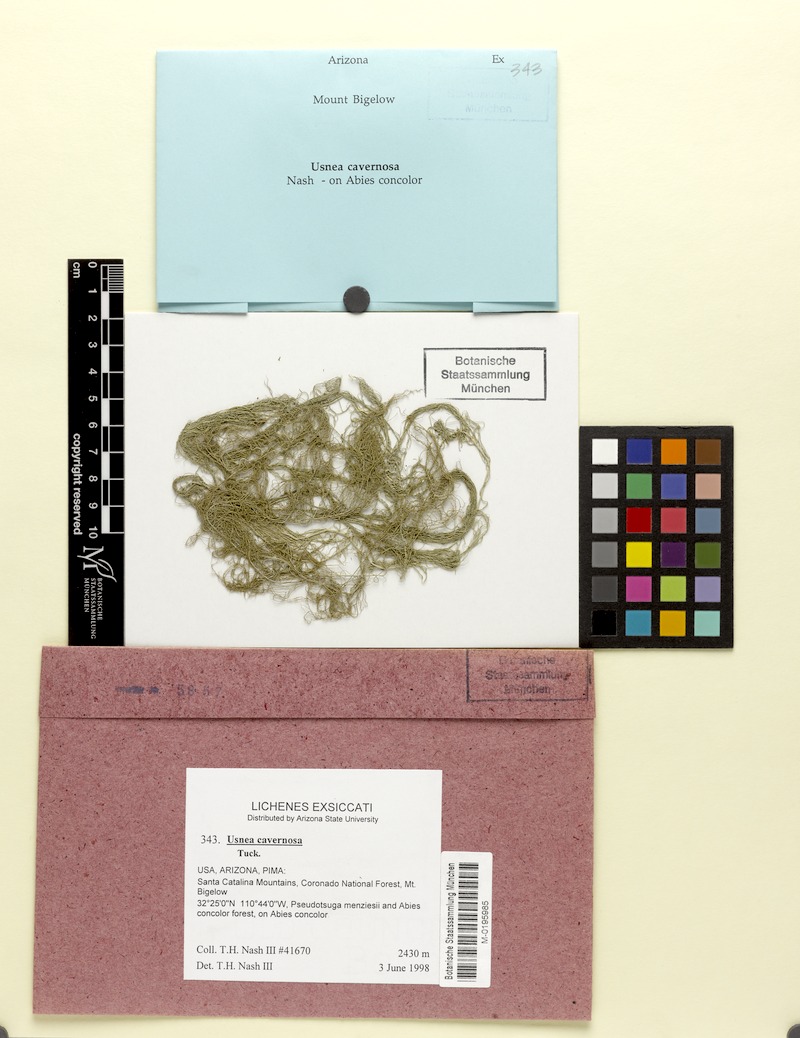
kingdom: Fungi
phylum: Ascomycota
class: Lecanoromycetes
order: Lecanorales
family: Parmeliaceae
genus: Usnea
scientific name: Usnea cavernosa
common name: Pitted beard lichen
